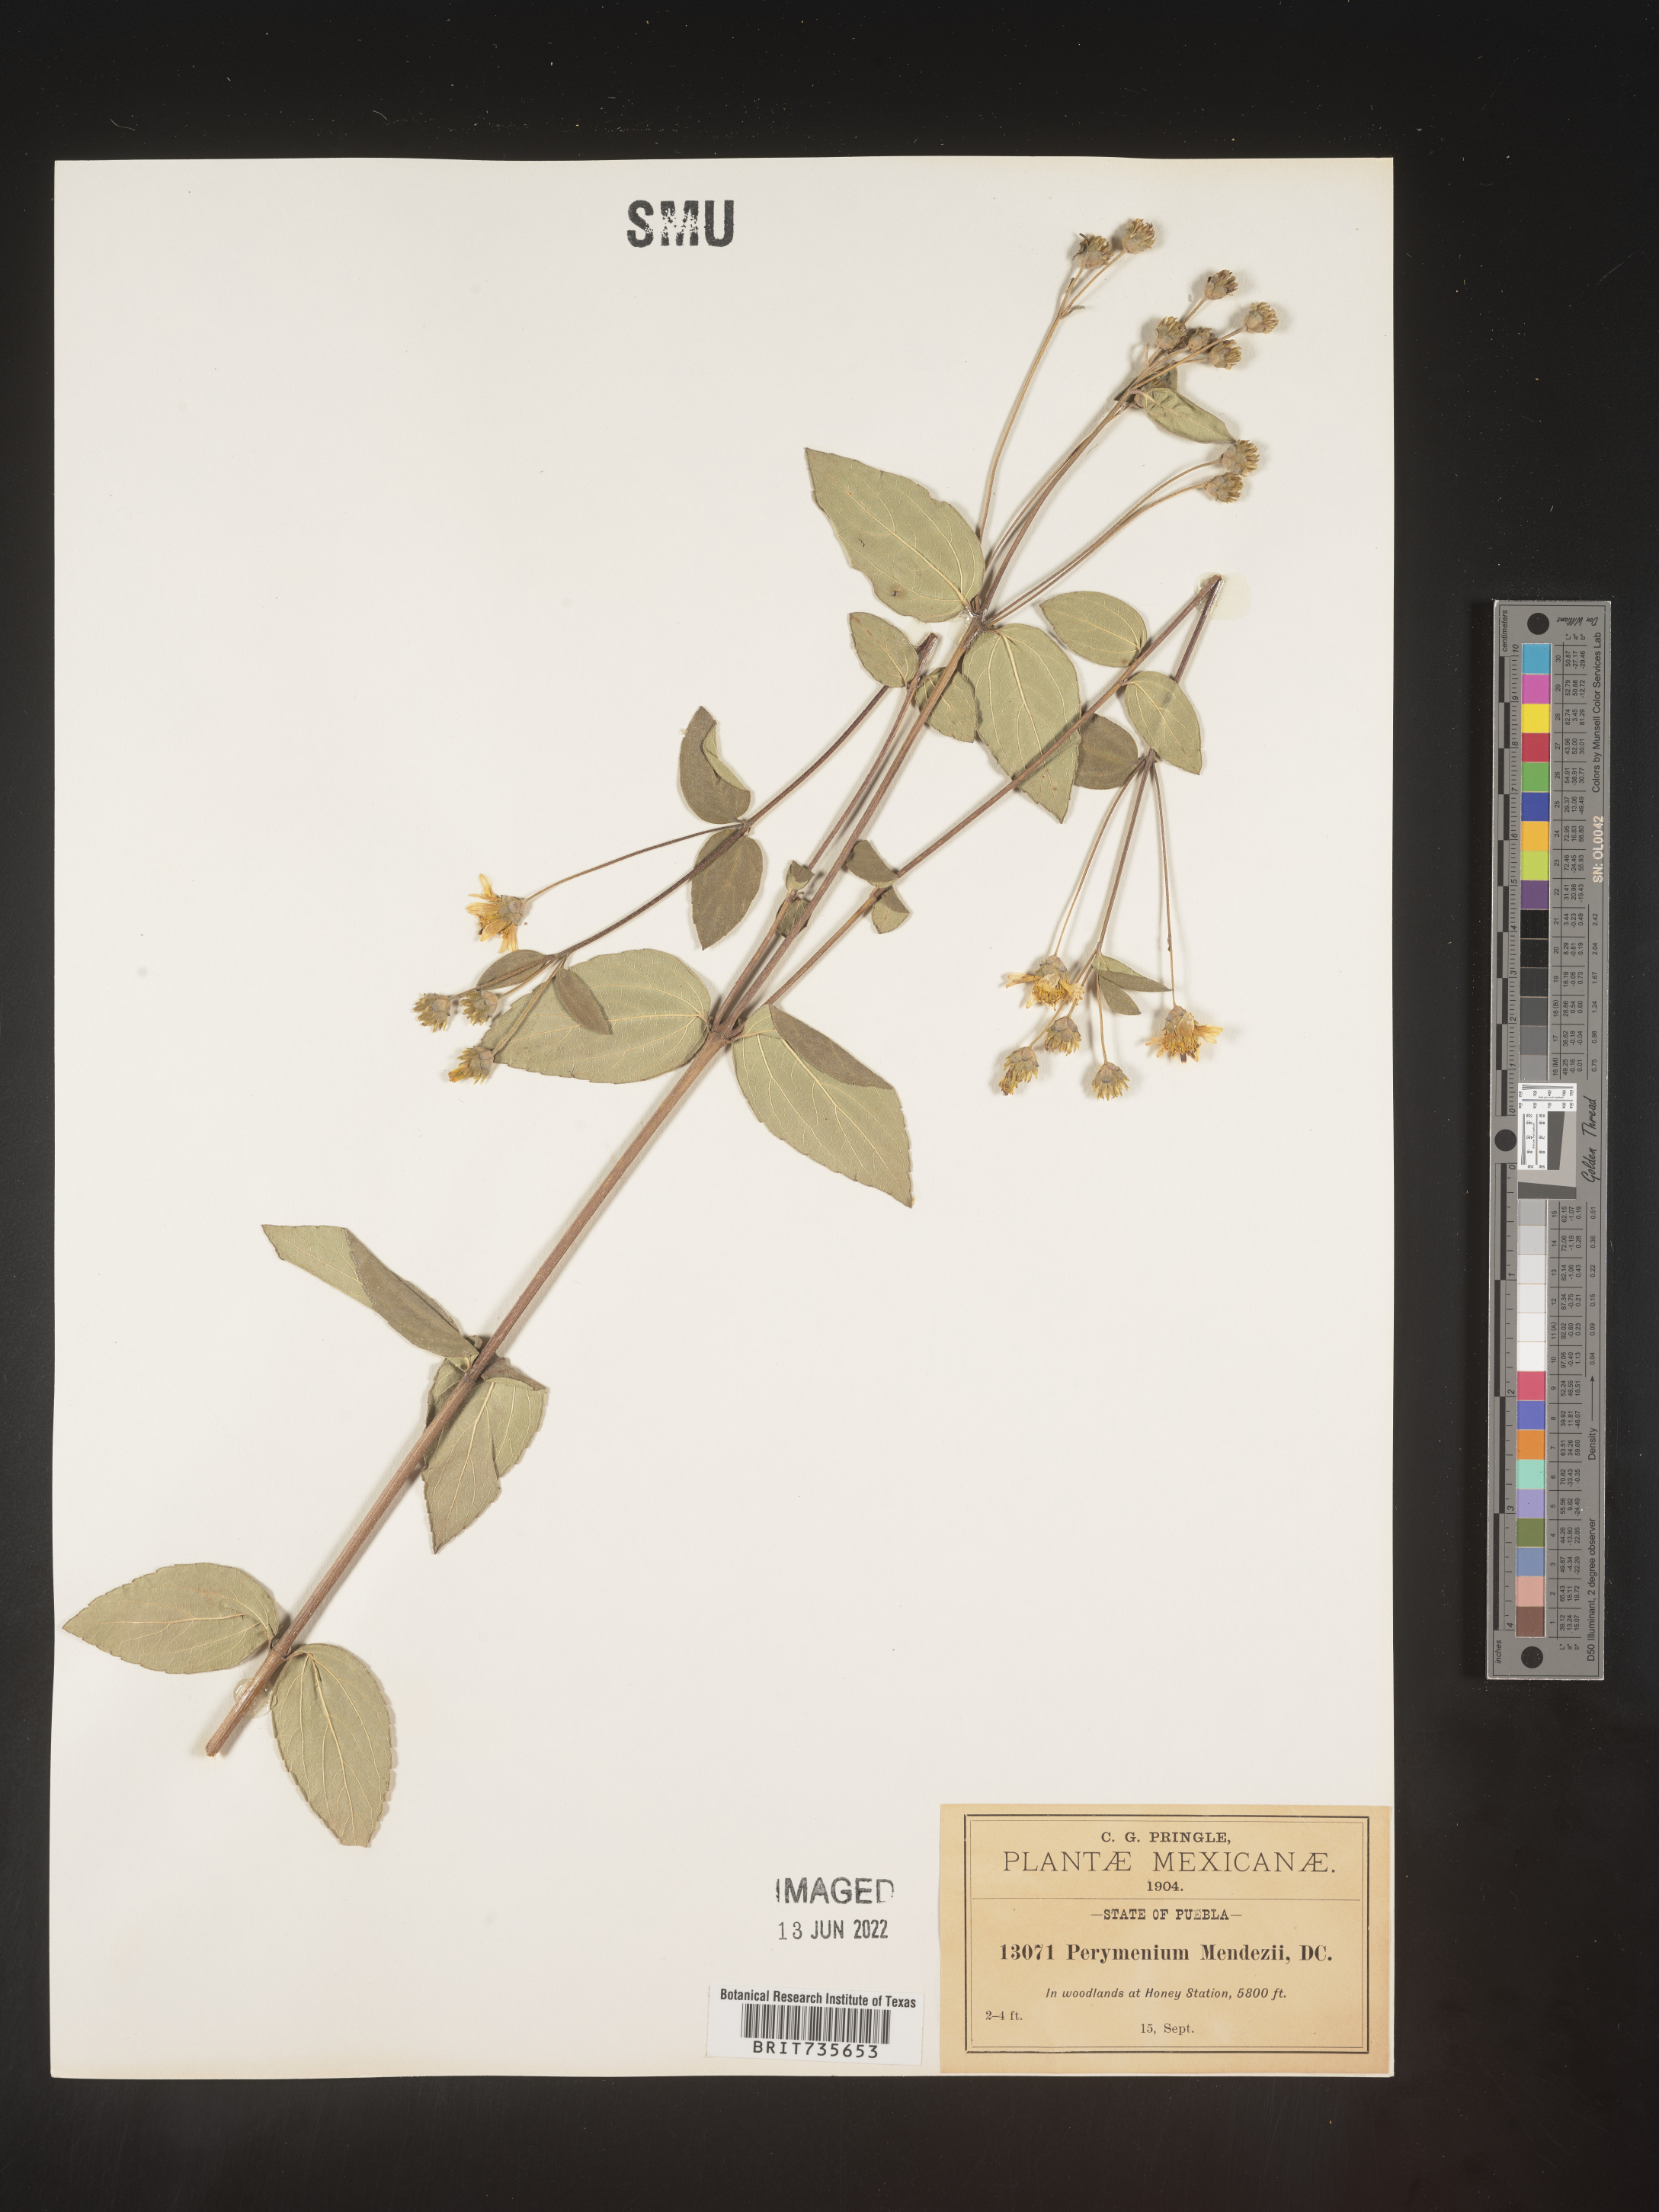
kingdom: Plantae
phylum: Tracheophyta
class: Magnoliopsida
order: Asterales
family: Asteraceae
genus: Perymenium
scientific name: Perymenium
